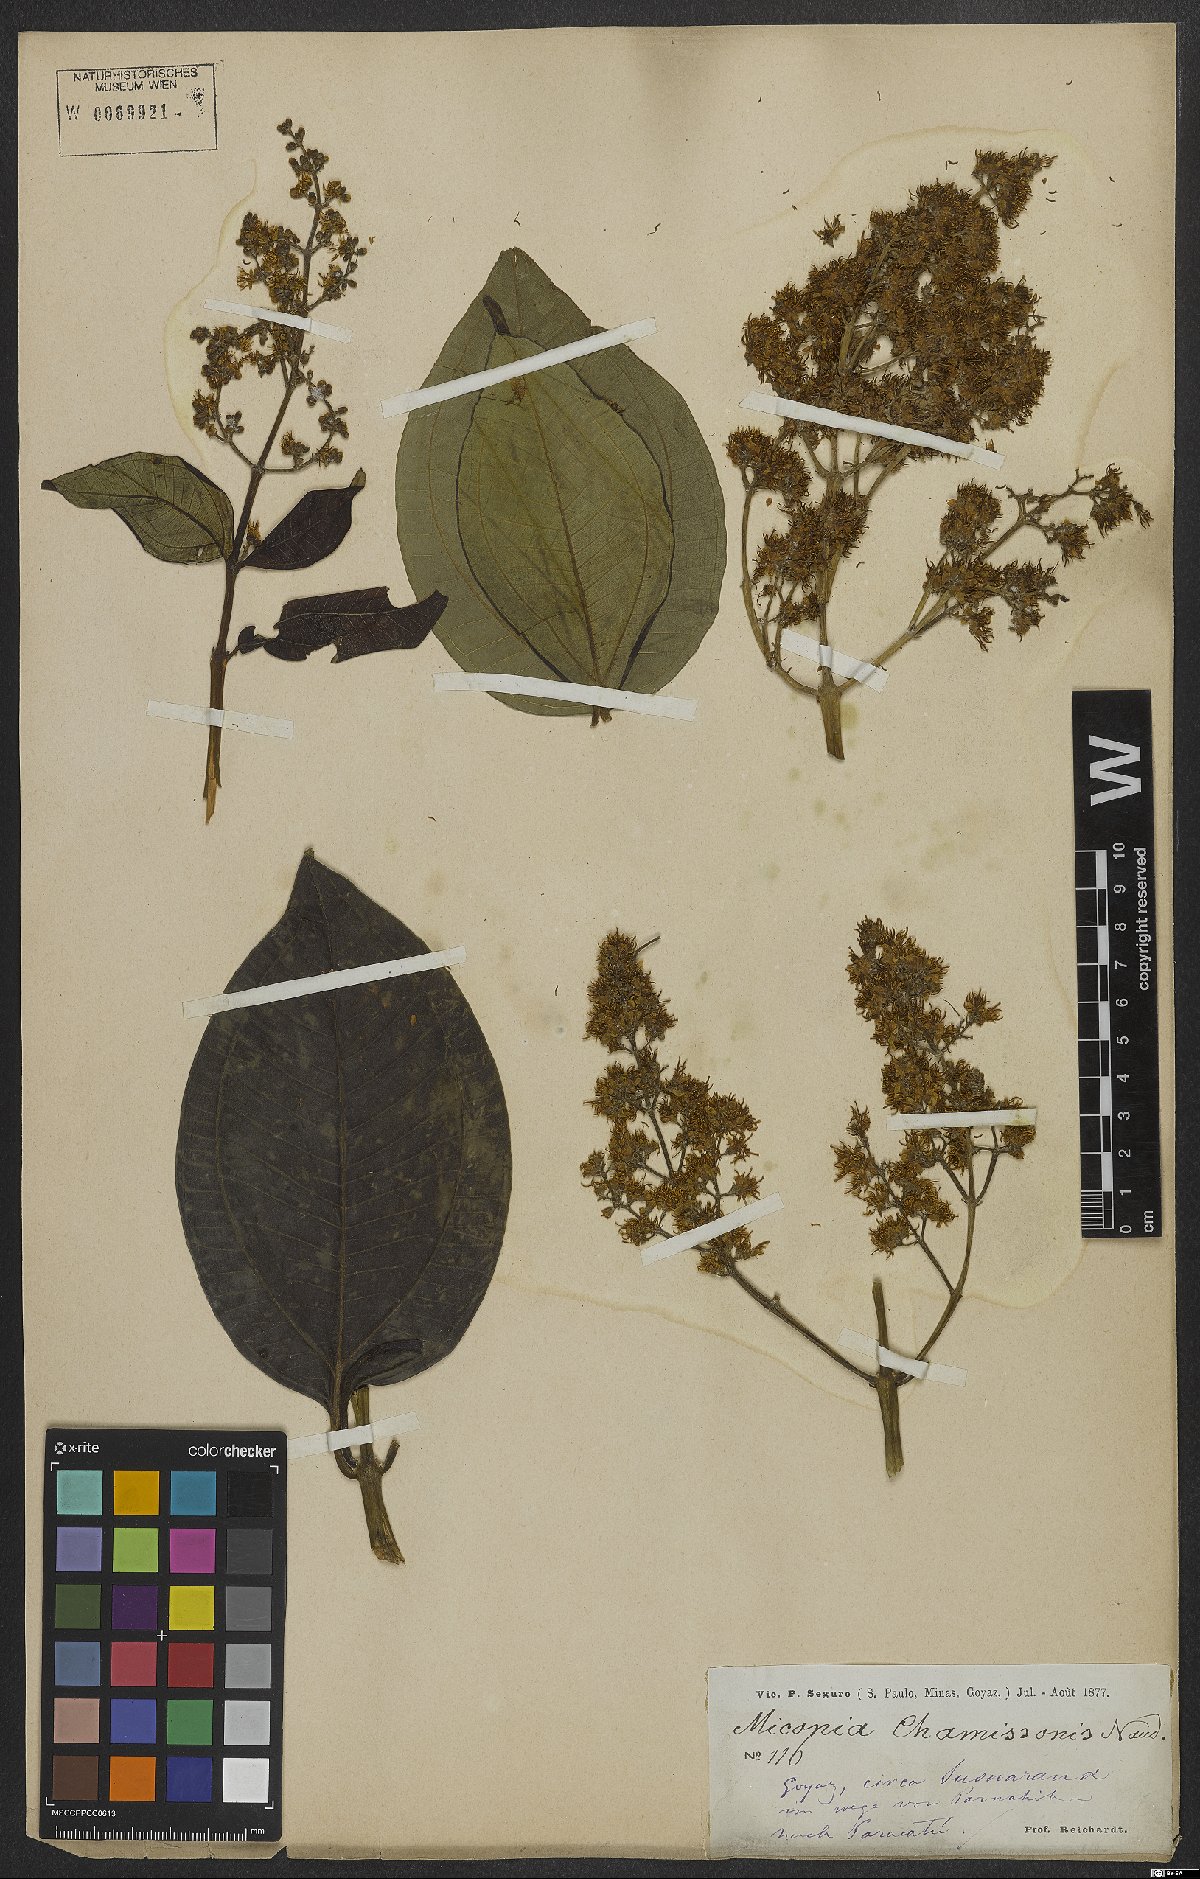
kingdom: Plantae
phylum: Tracheophyta
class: Magnoliopsida
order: Myrtales
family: Melastomataceae
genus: Miconia
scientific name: Miconia chamissois
